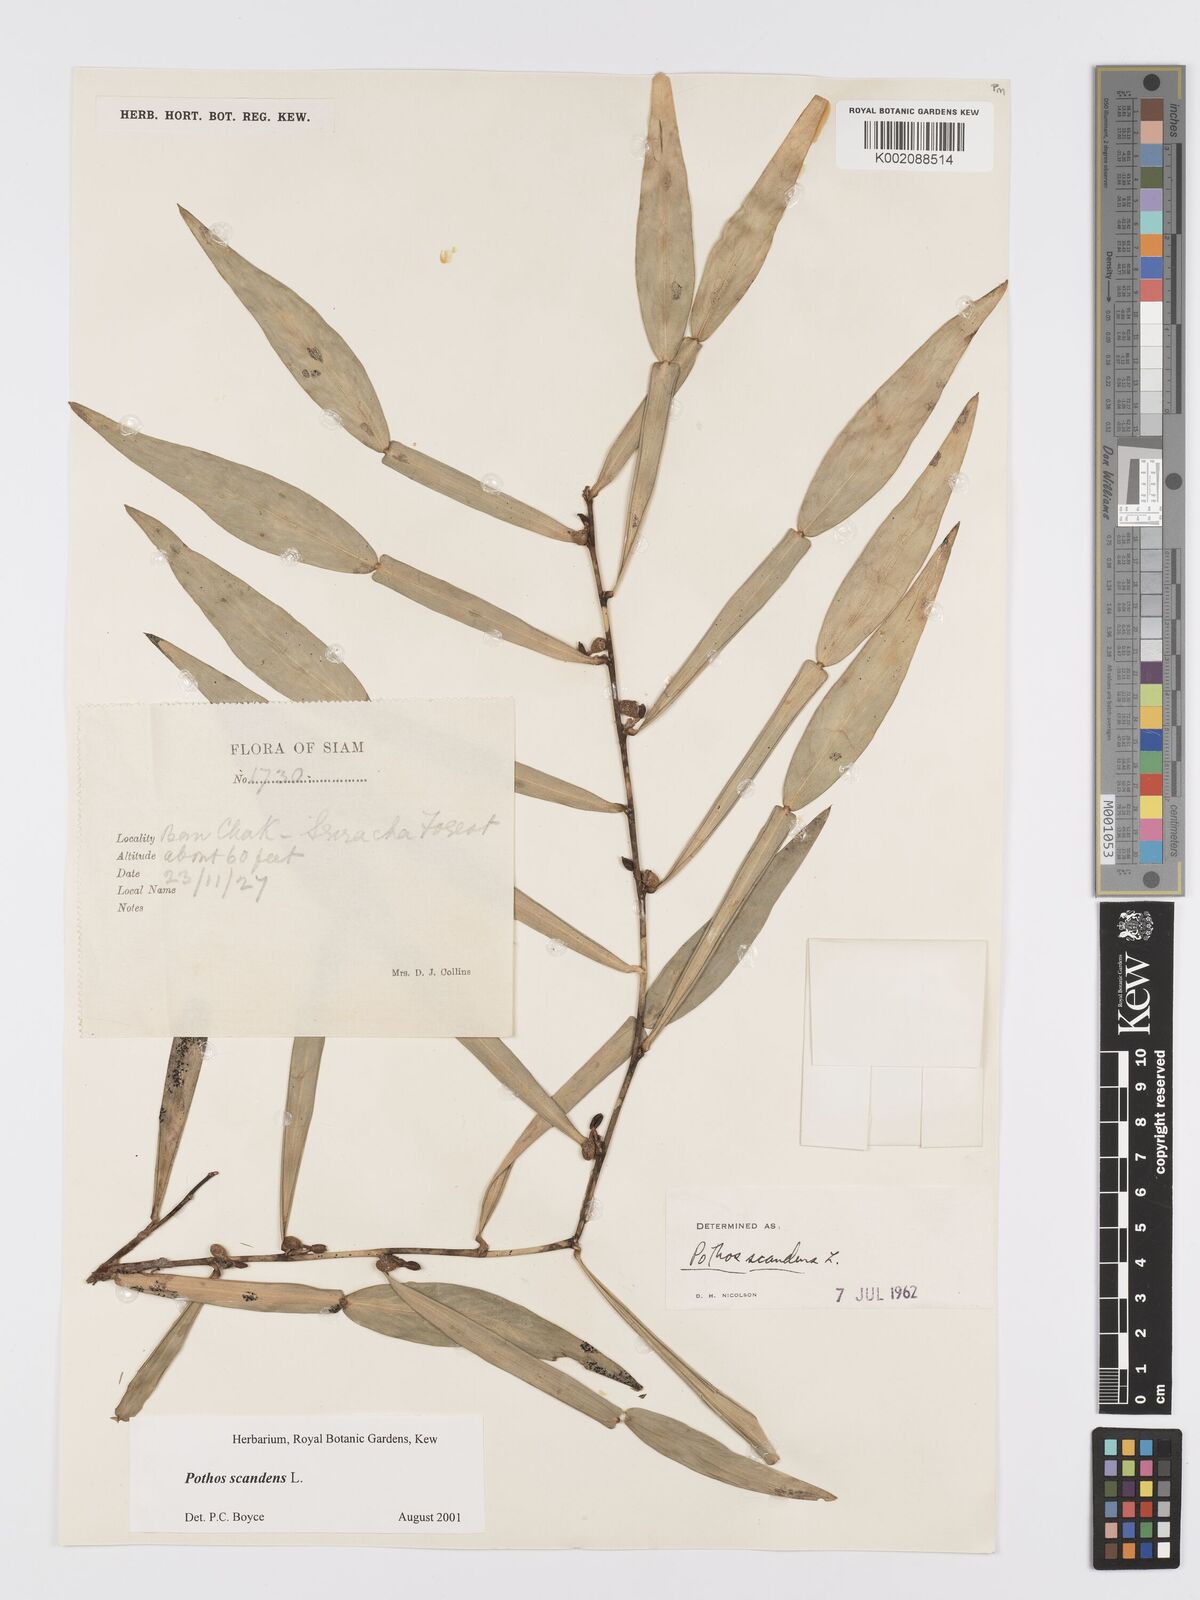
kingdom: Plantae
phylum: Tracheophyta
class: Liliopsida
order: Alismatales
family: Araceae
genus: Pothos
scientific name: Pothos scandens
